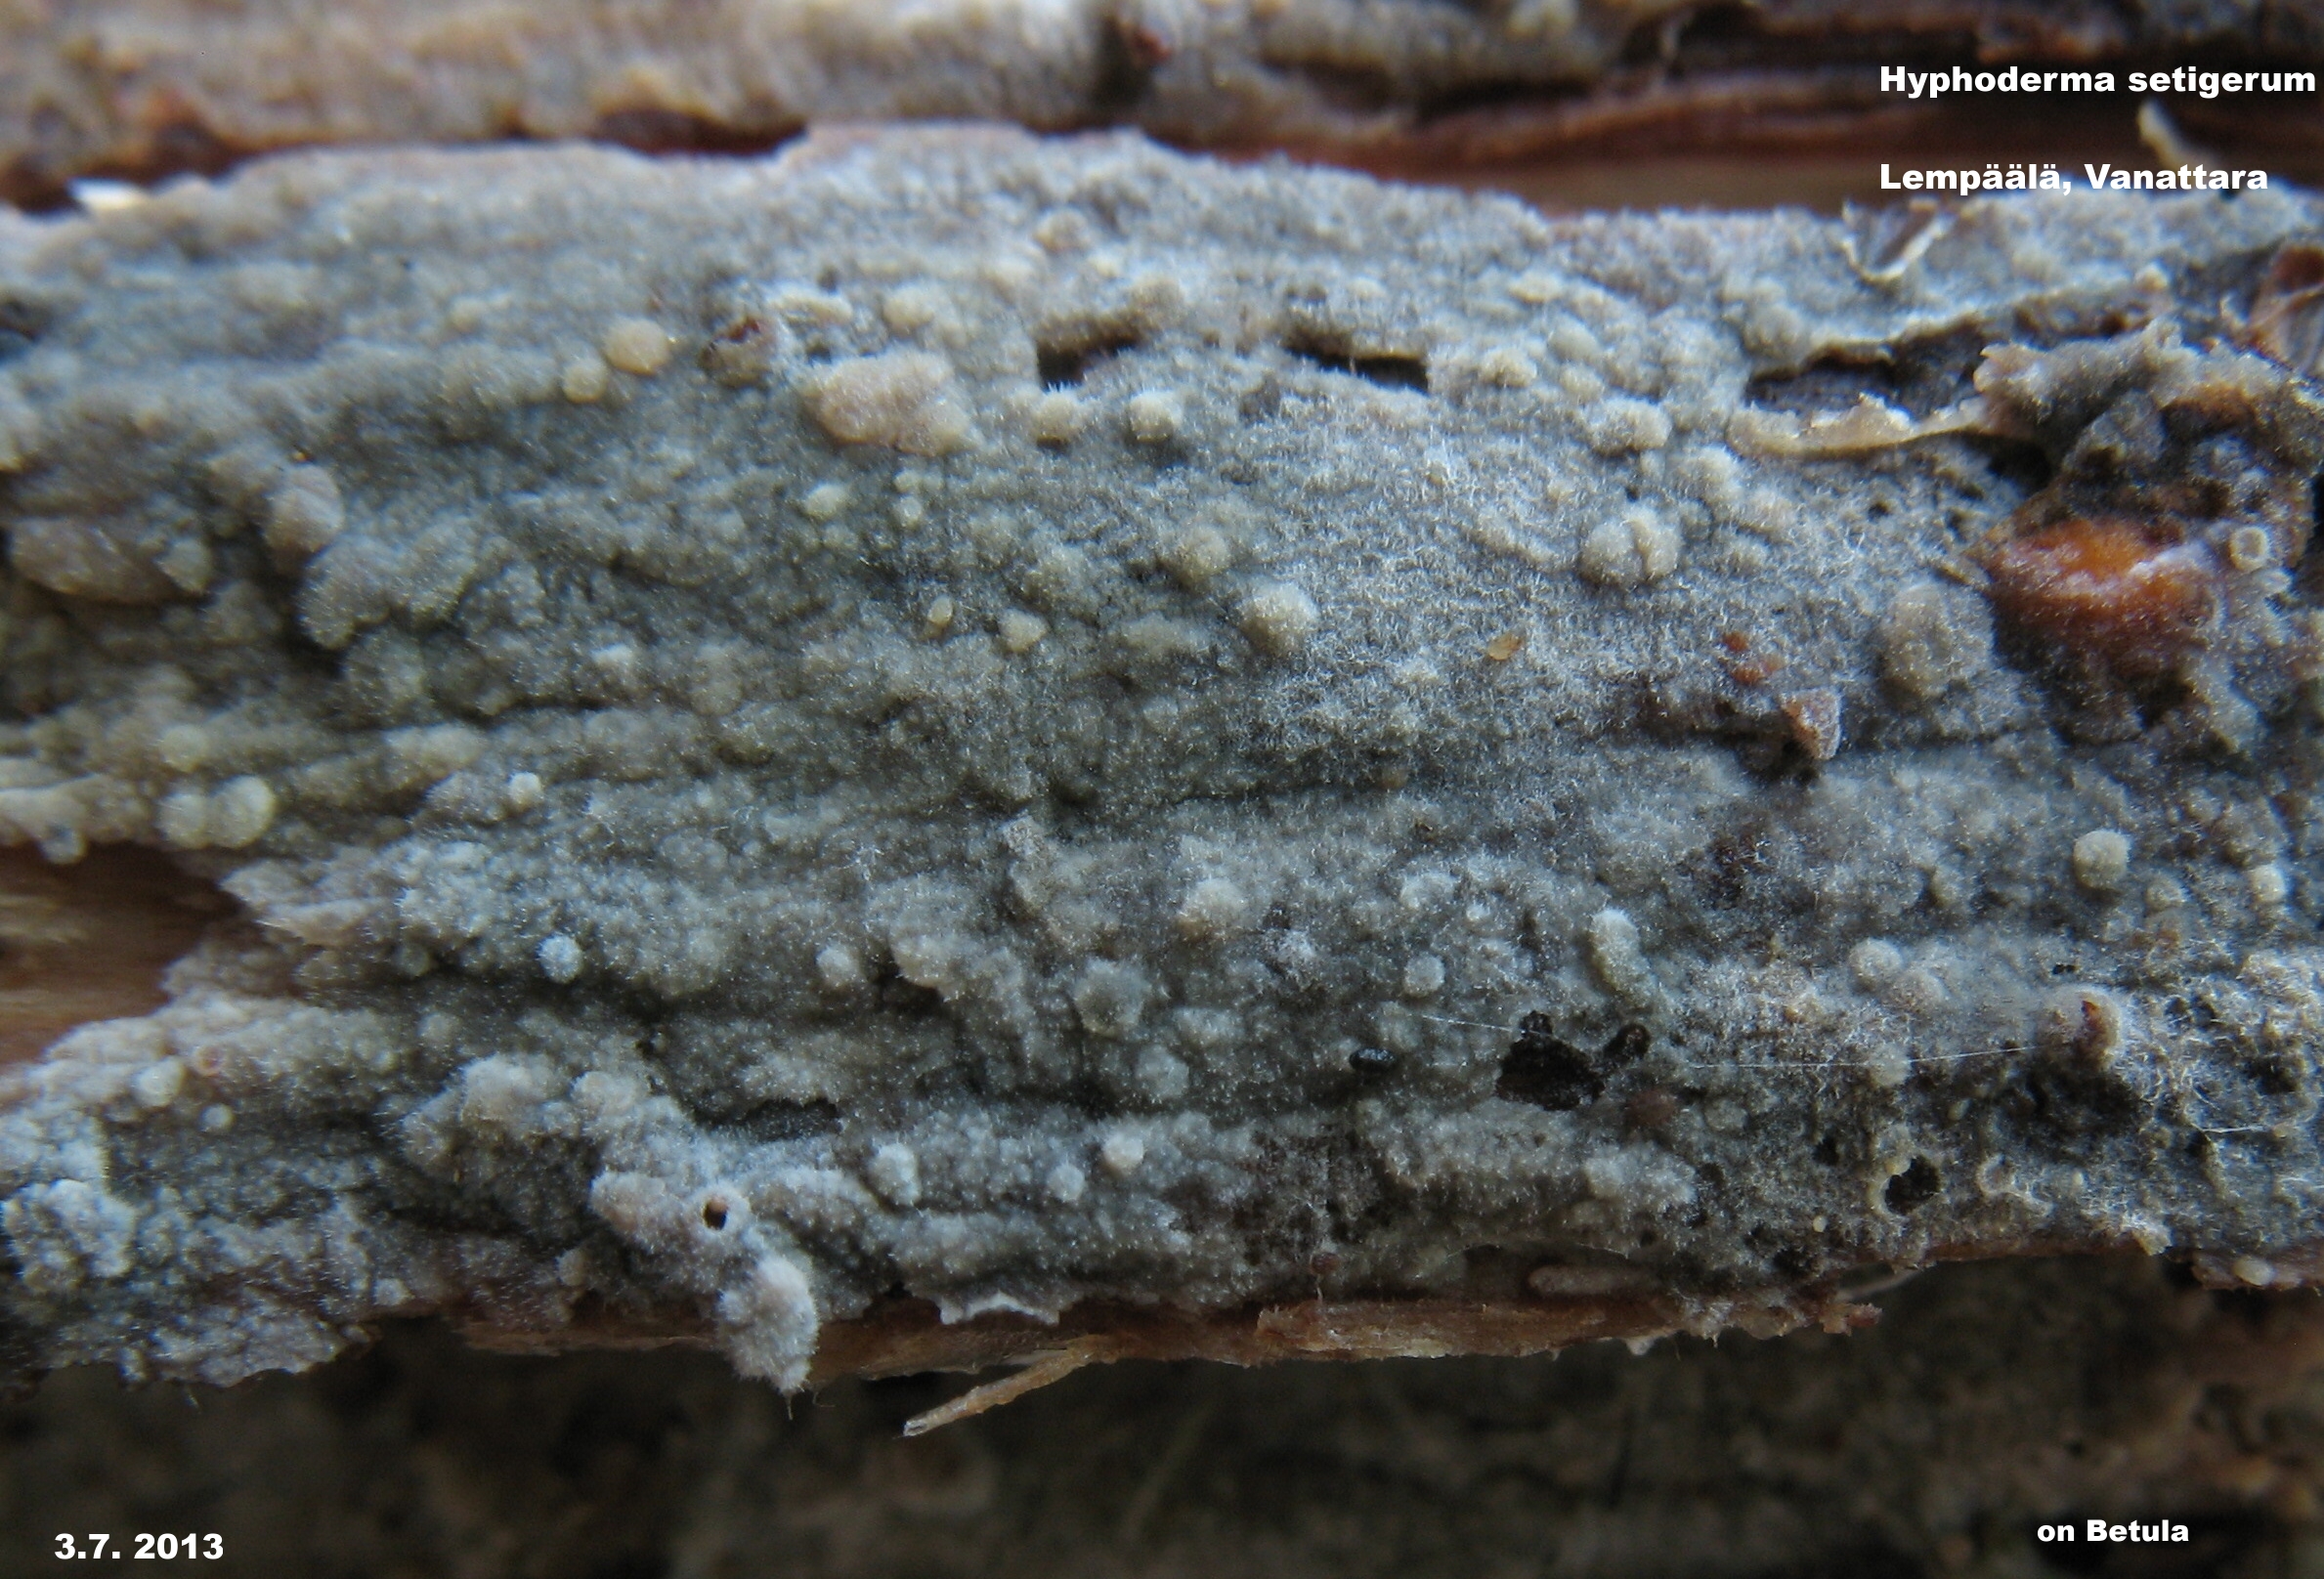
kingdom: Fungi
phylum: Basidiomycota
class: Agaricomycetes
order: Polyporales
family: Hyphodermataceae
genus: Hyphoderma
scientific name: Hyphoderma setigerum
